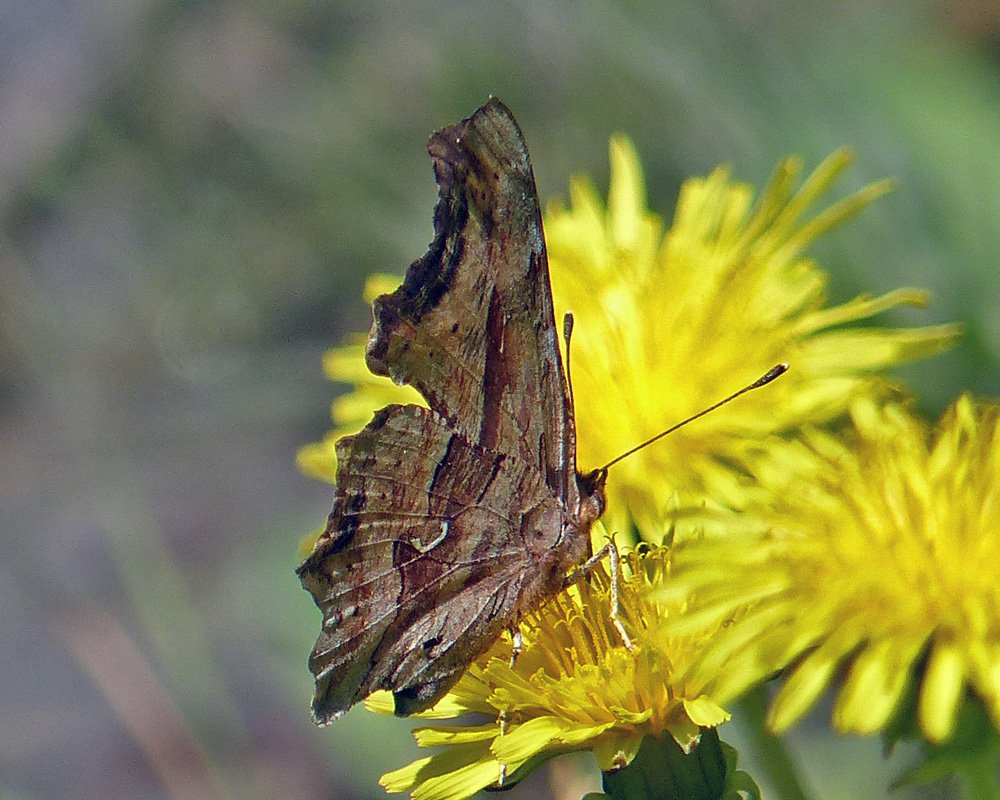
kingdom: Animalia
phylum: Arthropoda
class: Insecta
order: Lepidoptera
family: Nymphalidae
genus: Polygonia
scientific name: Polygonia satyrus
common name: Satyr Comma
